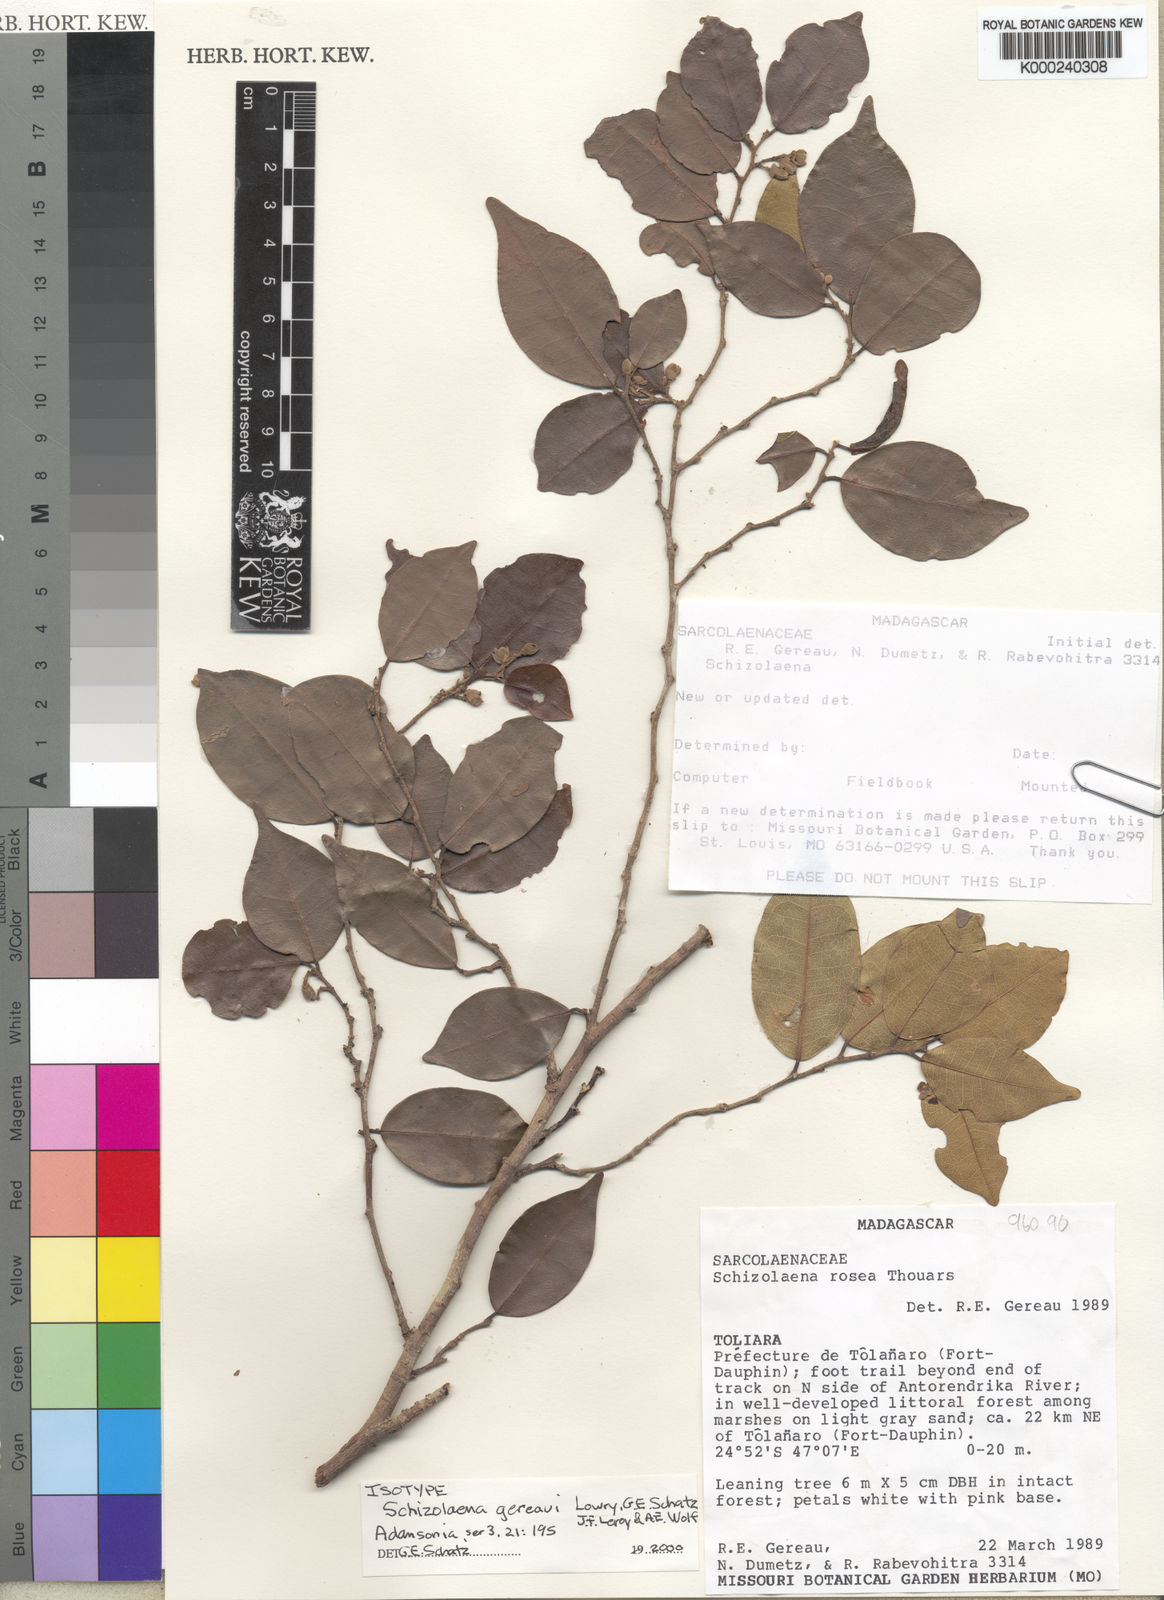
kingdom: Plantae
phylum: Tracheophyta
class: Magnoliopsida
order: Malvales
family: Sarcolaenaceae
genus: Schizolaena
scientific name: Schizolaena gereaui
